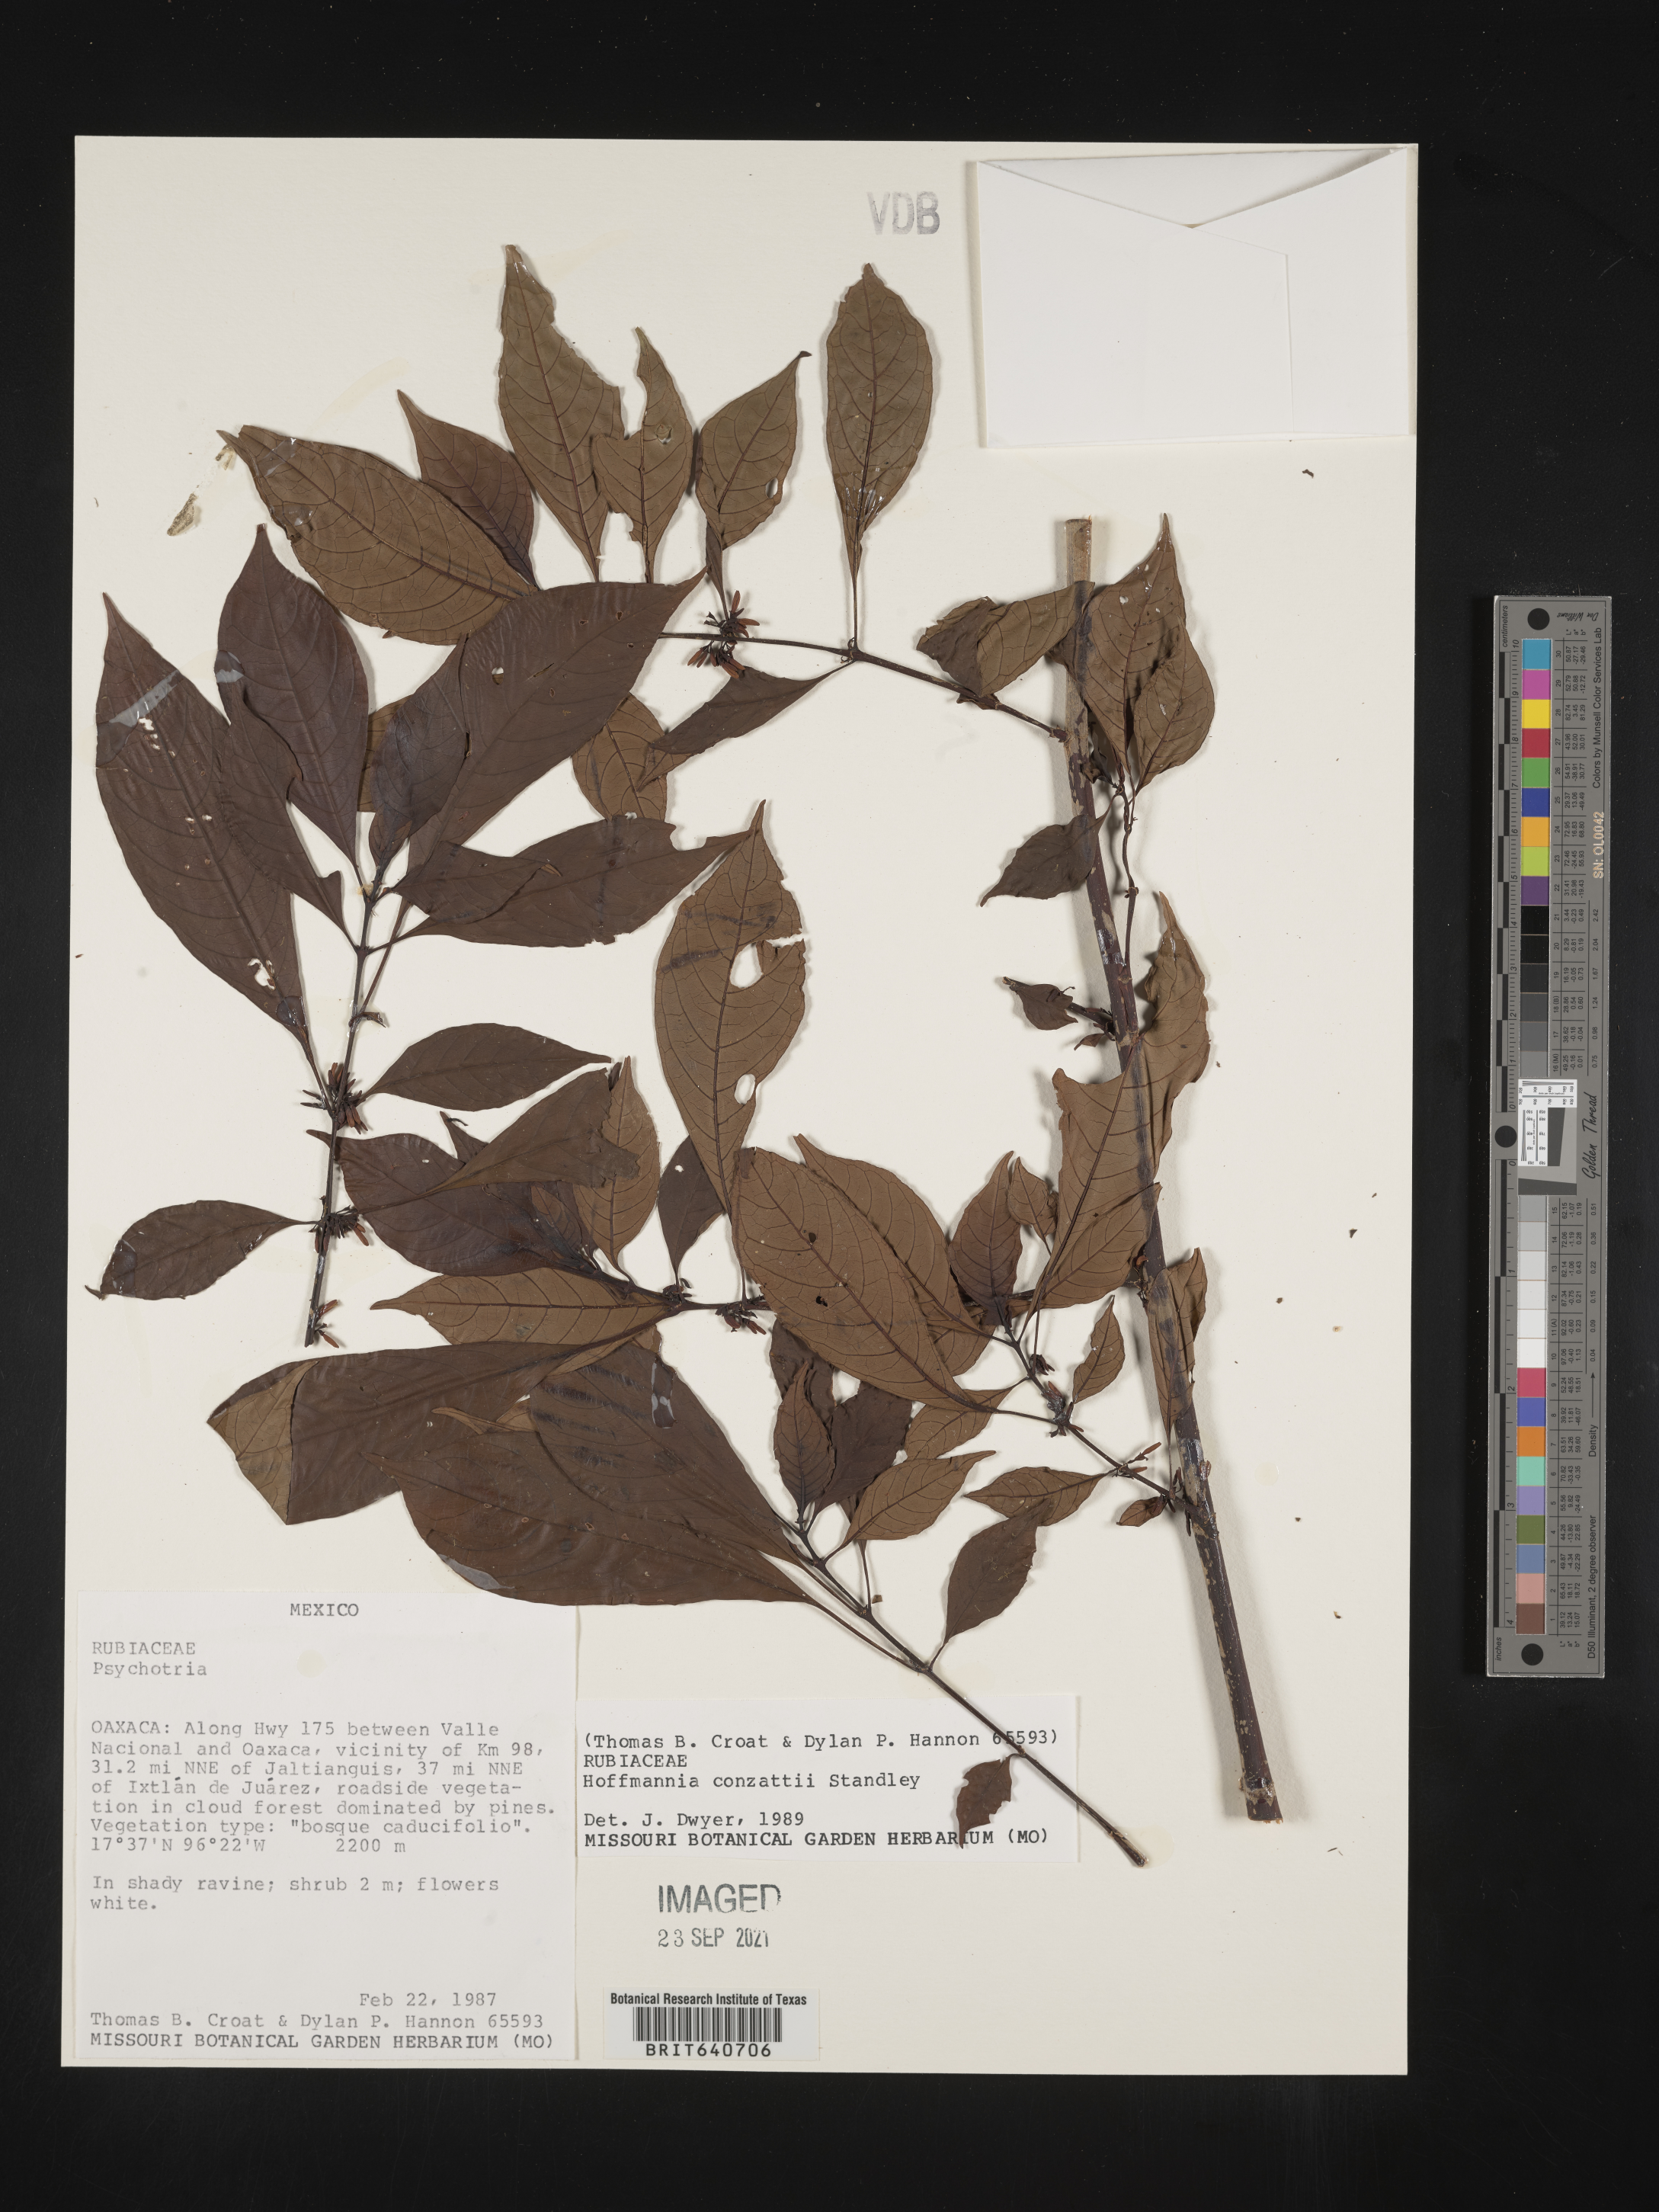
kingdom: Plantae
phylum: Tracheophyta
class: Magnoliopsida
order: Gentianales
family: Rubiaceae
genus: Hoffmannia
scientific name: Hoffmannia
